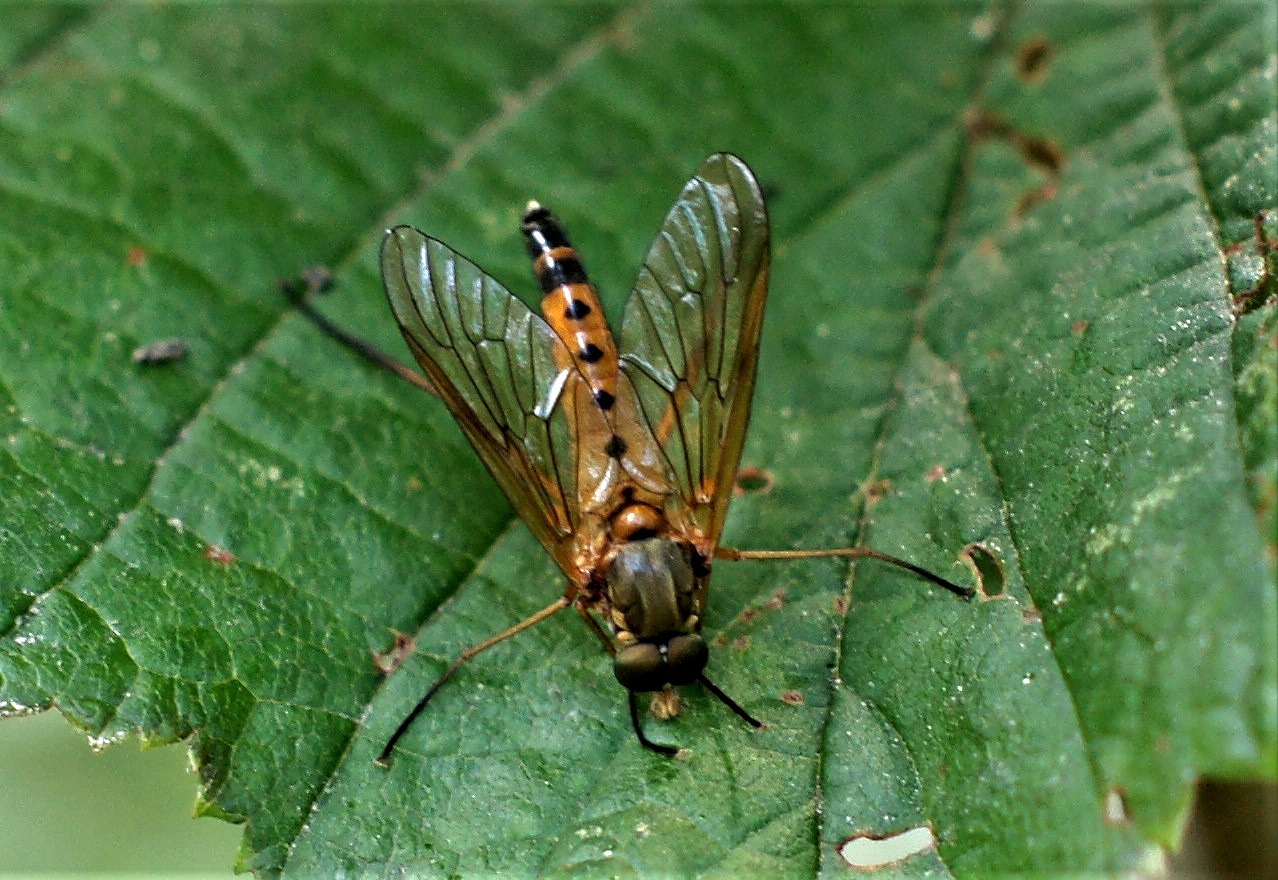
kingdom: Animalia
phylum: Arthropoda
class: Insecta
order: Diptera
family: Rhagionidae
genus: Rhagio
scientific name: Rhagio tringaria
